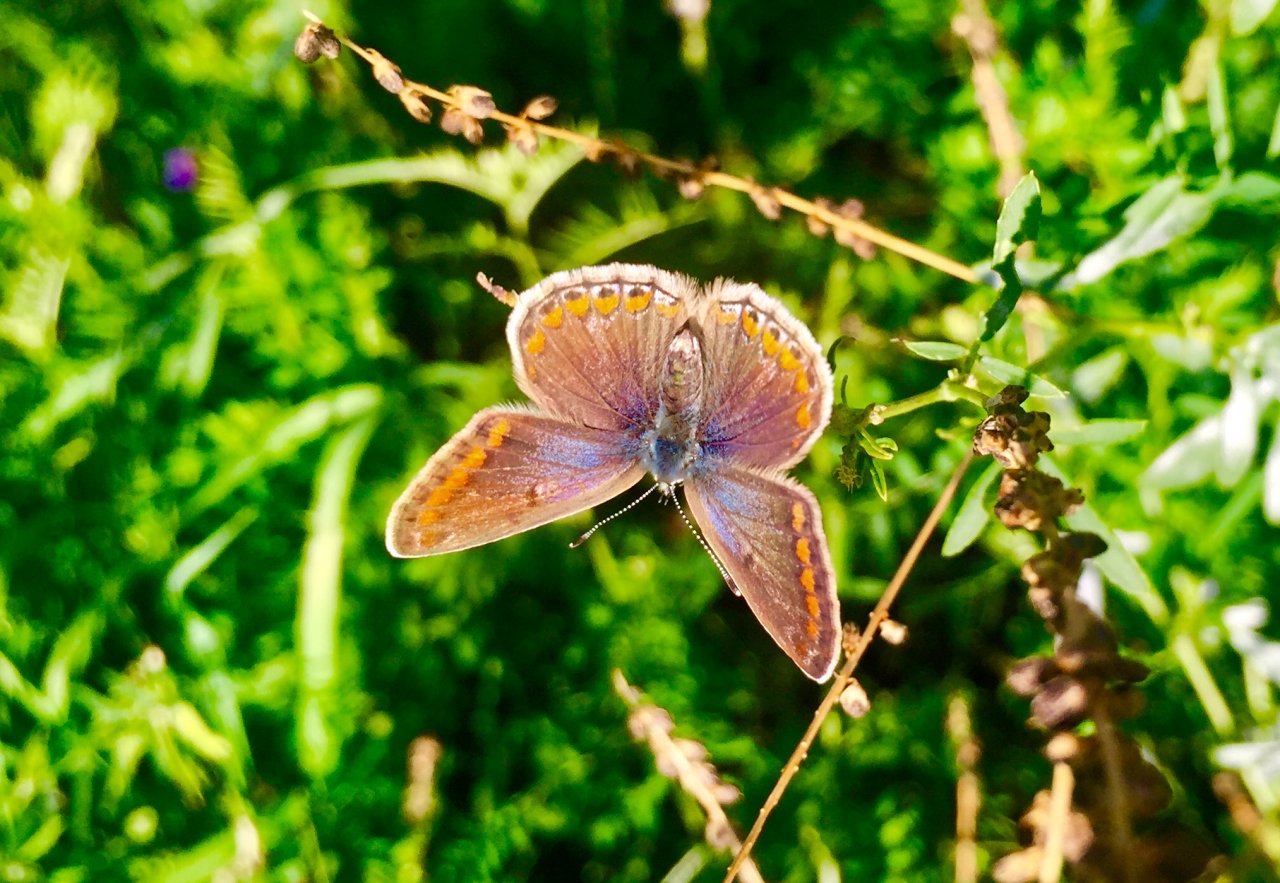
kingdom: Animalia
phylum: Arthropoda
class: Insecta
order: Lepidoptera
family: Lycaenidae
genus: Polyommatus
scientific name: Polyommatus icarus
